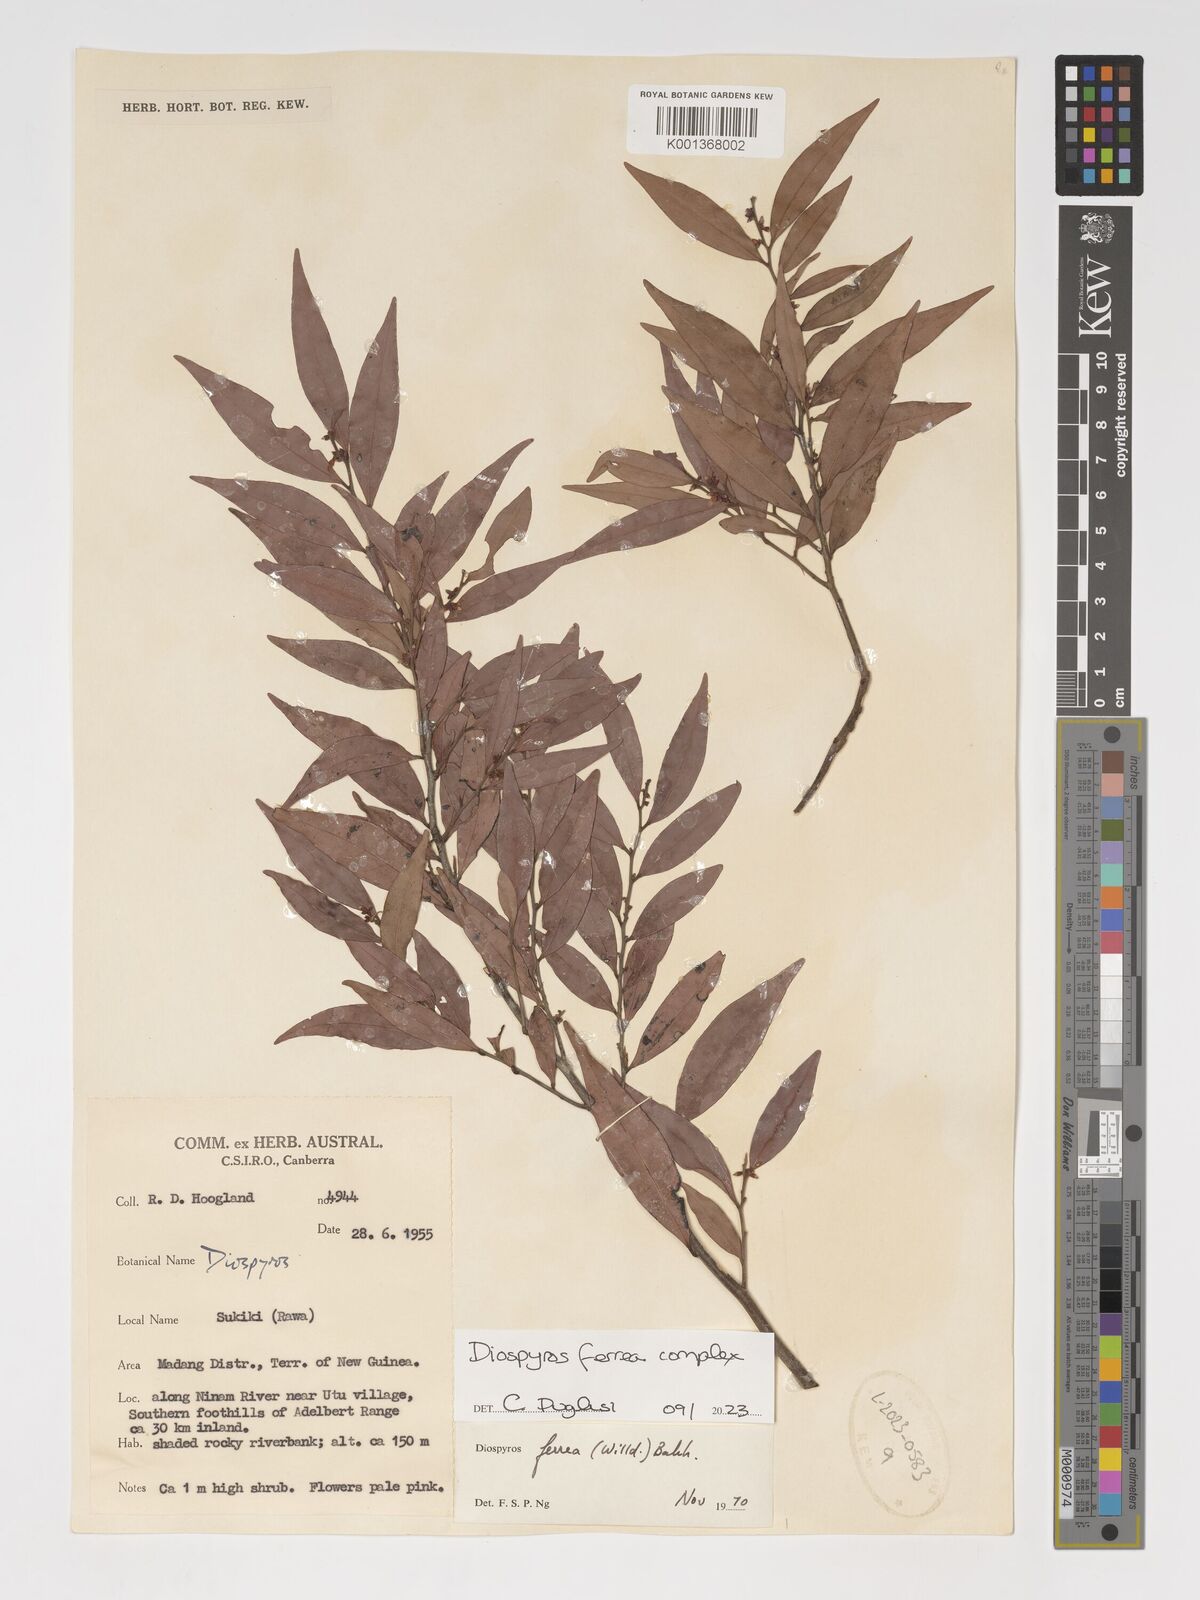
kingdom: Plantae
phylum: Tracheophyta
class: Magnoliopsida
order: Ericales
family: Ebenaceae
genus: Diospyros
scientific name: Diospyros ferrea
